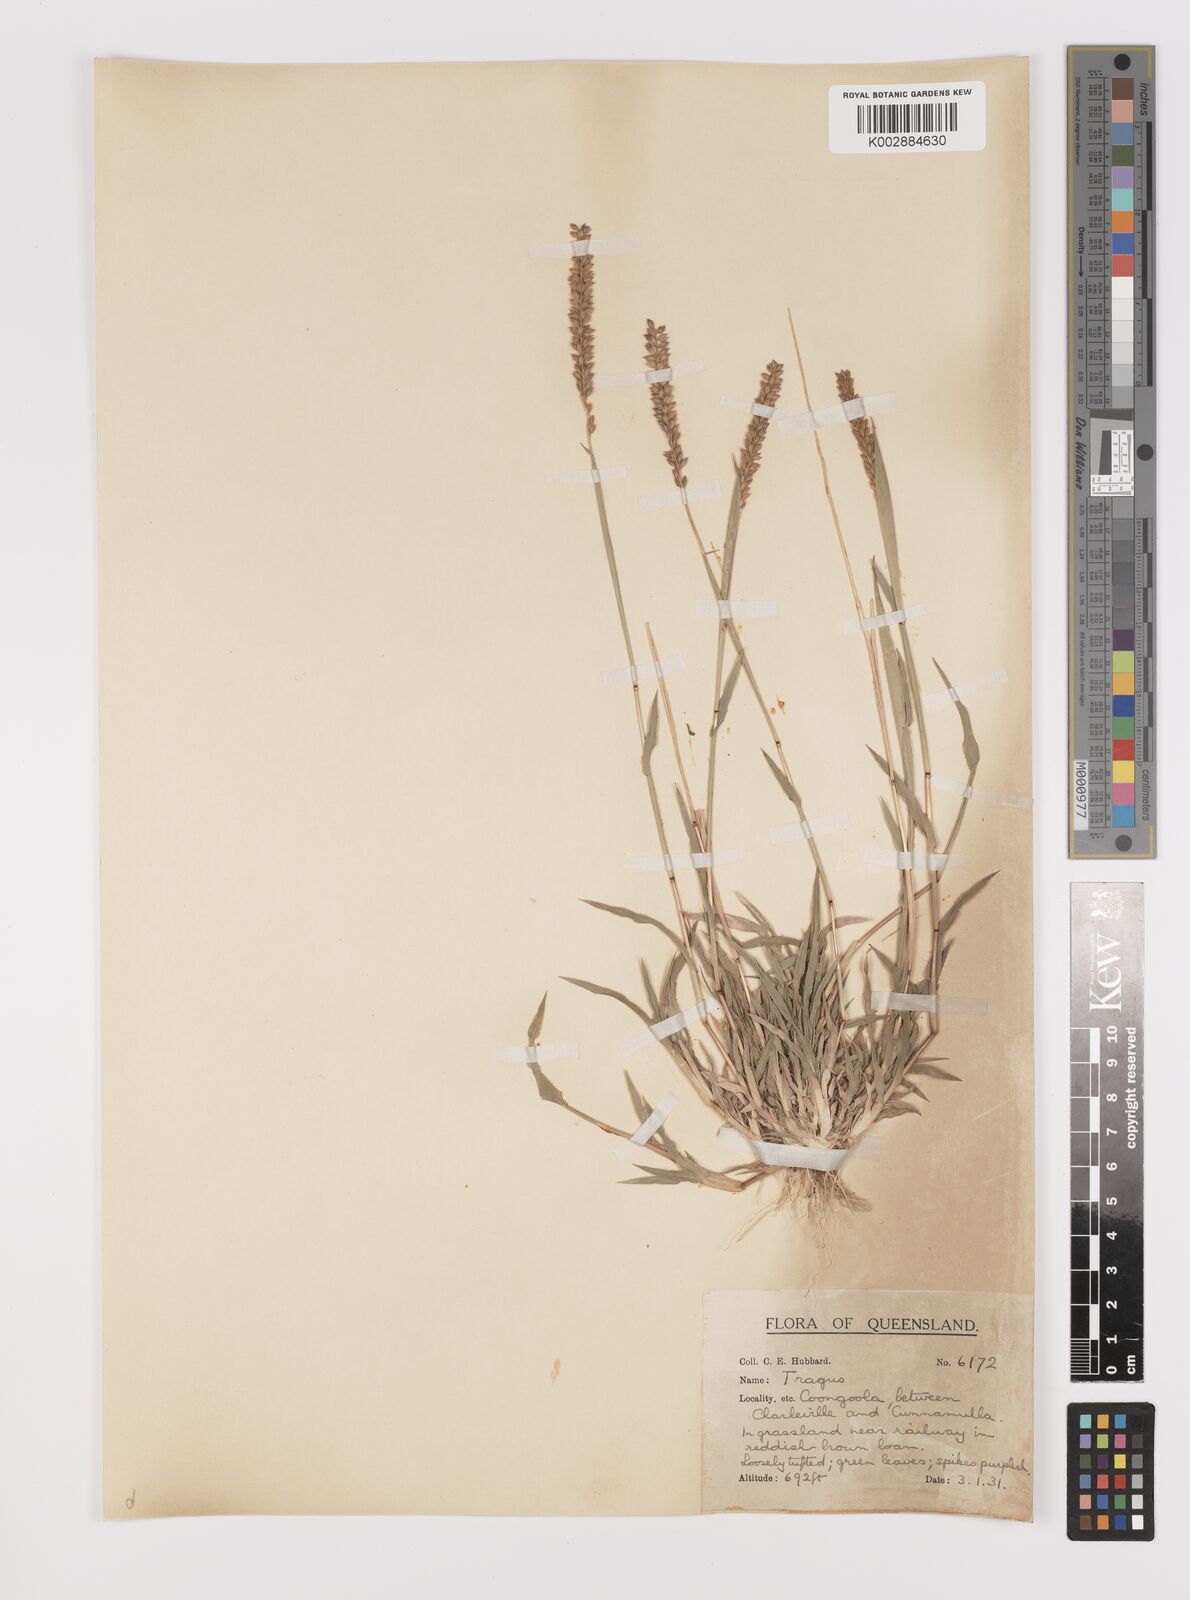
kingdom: Plantae
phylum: Tracheophyta
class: Liliopsida
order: Poales
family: Poaceae
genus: Tragus
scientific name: Tragus australianus
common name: Australian bur-grass
